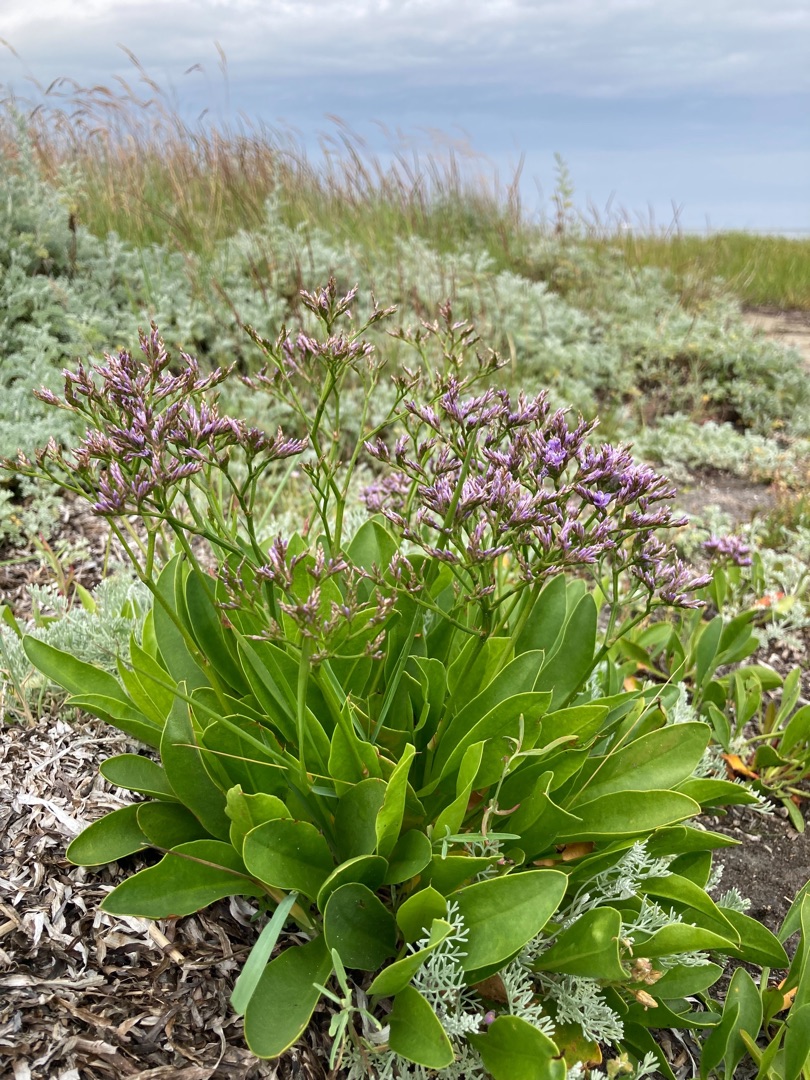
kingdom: Plantae
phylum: Tracheophyta
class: Magnoliopsida
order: Caryophyllales
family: Plumbaginaceae
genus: Limonium
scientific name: Limonium
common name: Hindebægerslægten
